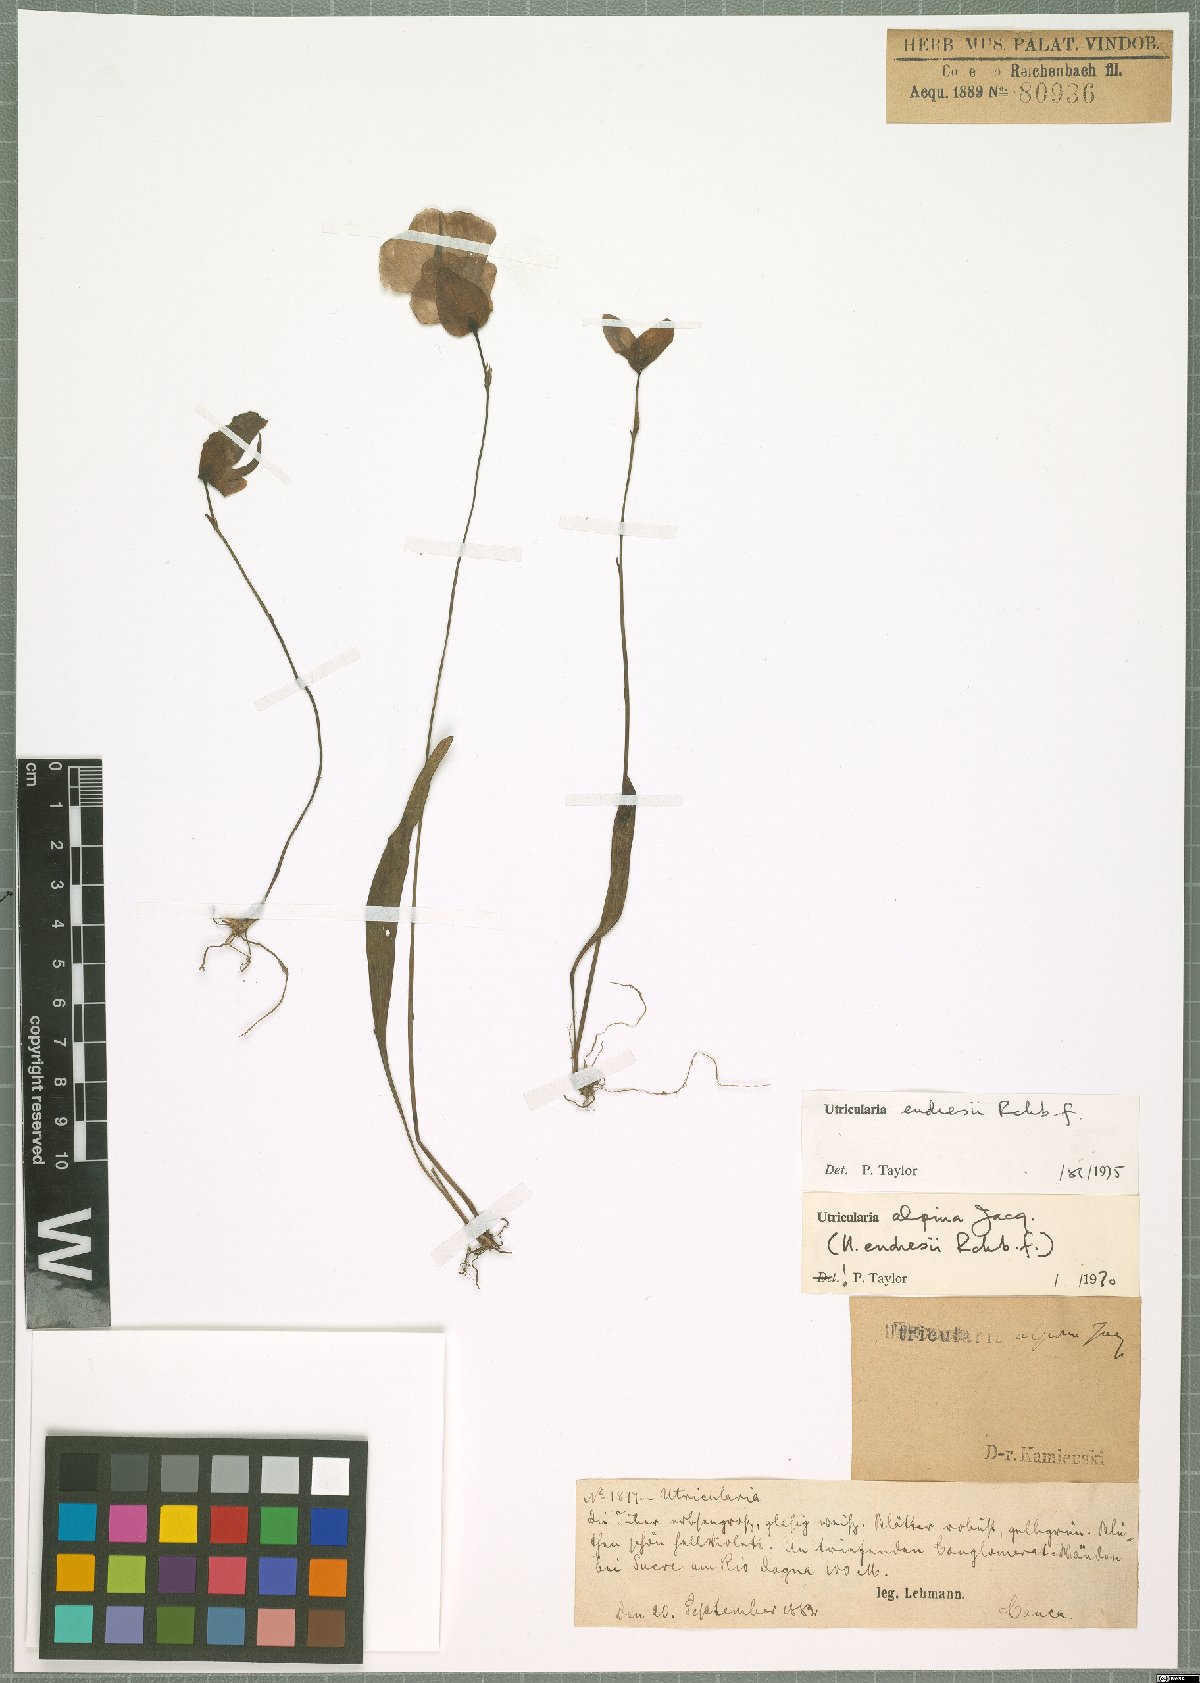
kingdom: Plantae
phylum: Tracheophyta
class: Magnoliopsida
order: Lamiales
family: Lentibulariaceae
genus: Utricularia
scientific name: Utricularia endresii
